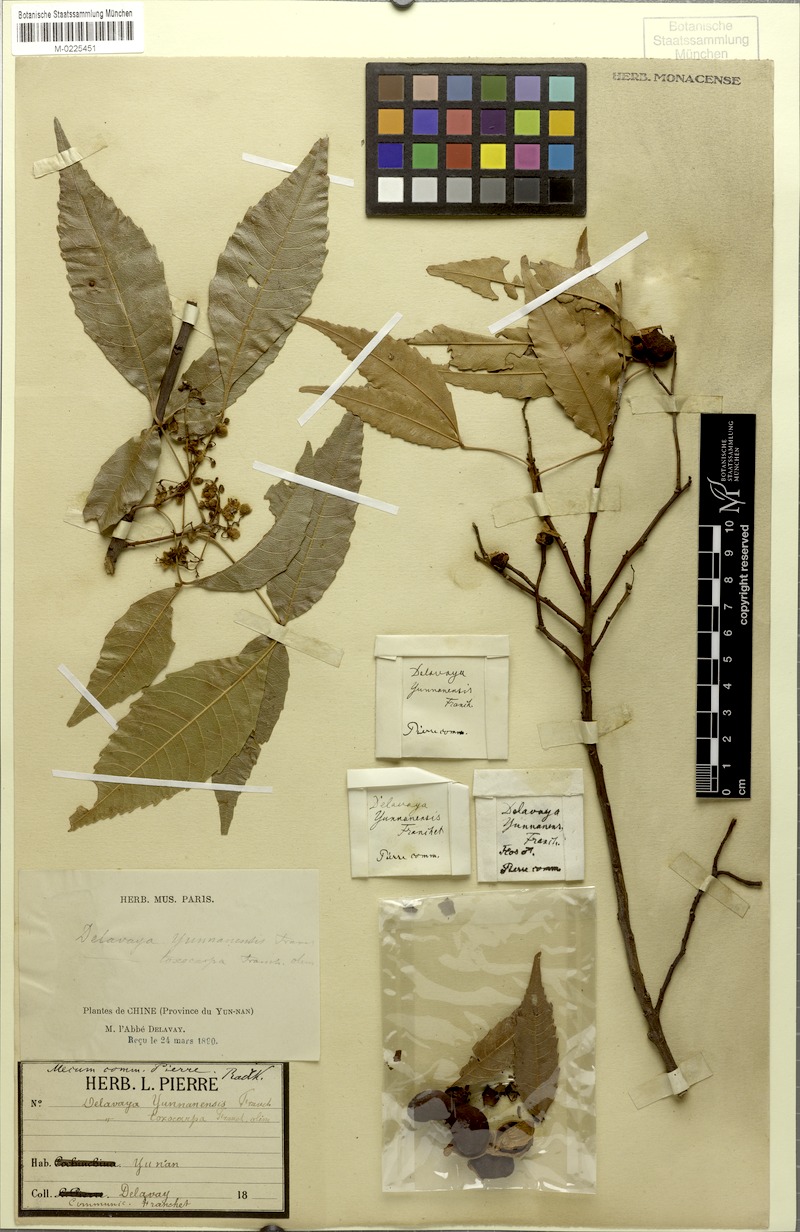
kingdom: Plantae
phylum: Tracheophyta
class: Magnoliopsida
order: Sapindales
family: Sapindaceae
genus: Delavaya
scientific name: Delavaya toxocarpa
